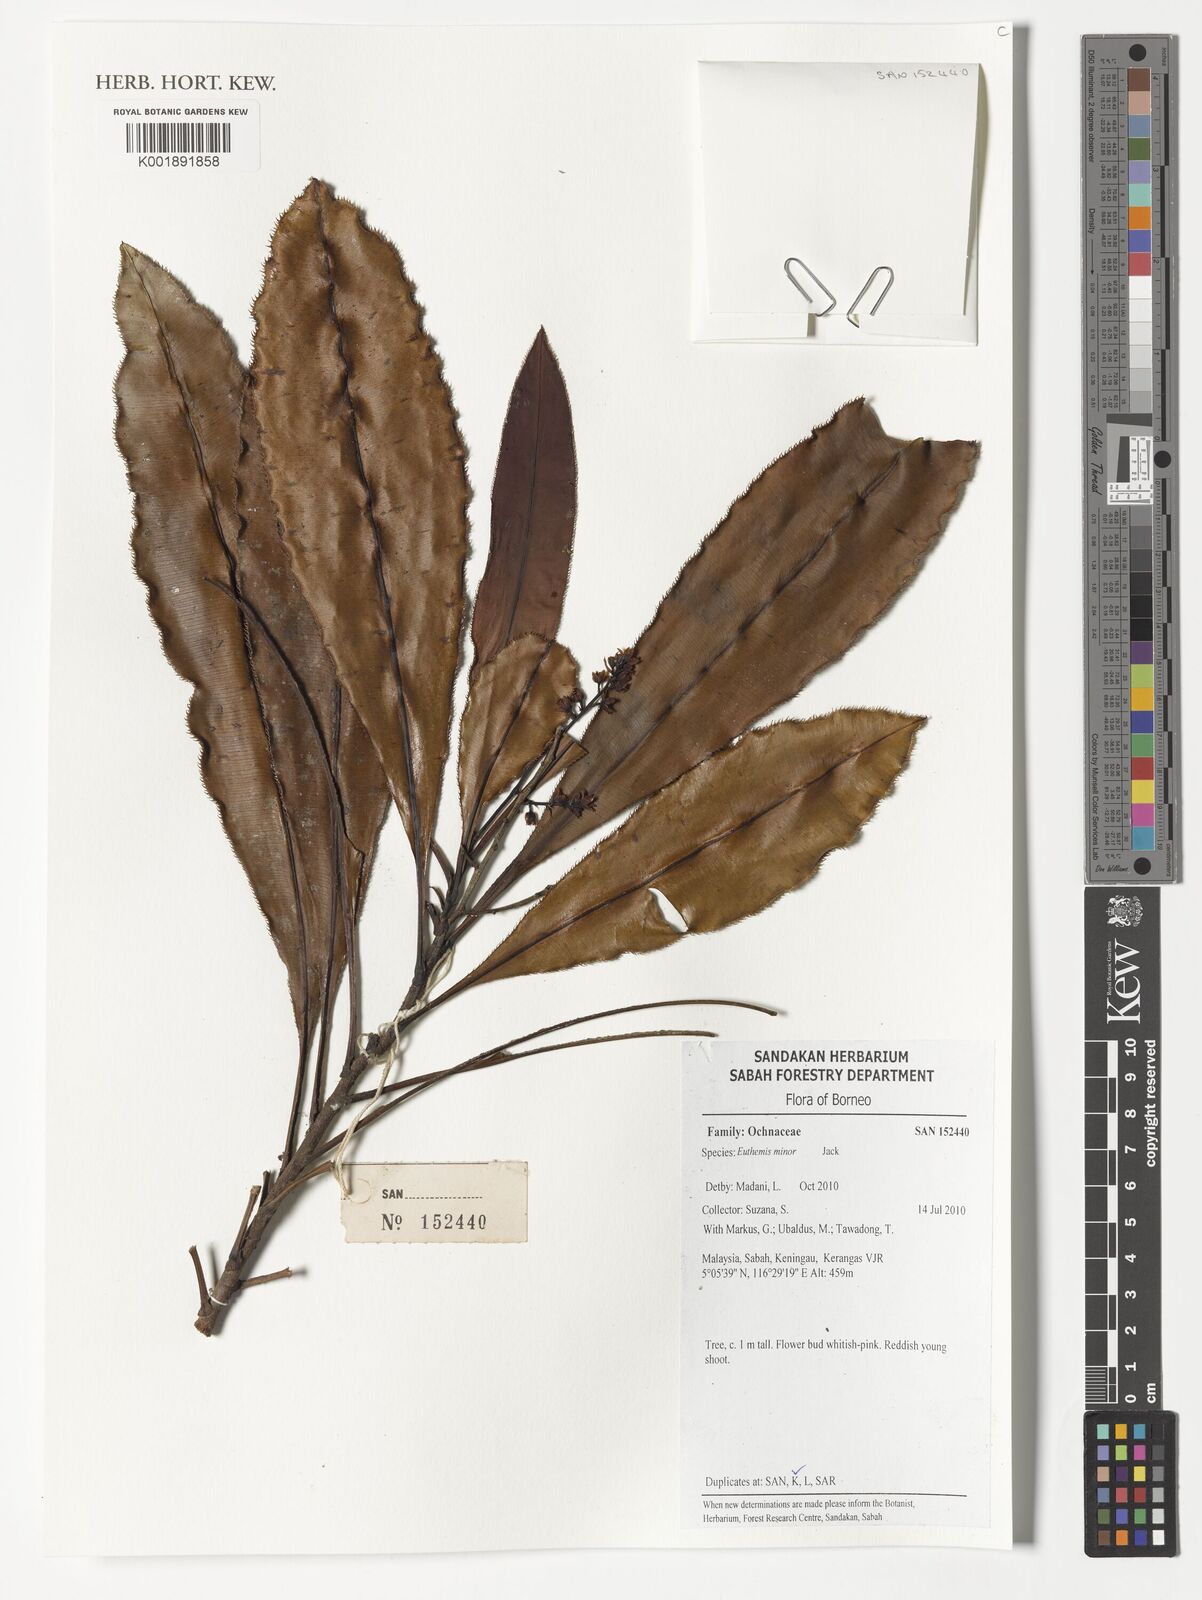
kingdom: Plantae
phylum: Tracheophyta
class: Magnoliopsida
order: Malpighiales
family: Ochnaceae
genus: Euthemis
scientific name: Euthemis minor
